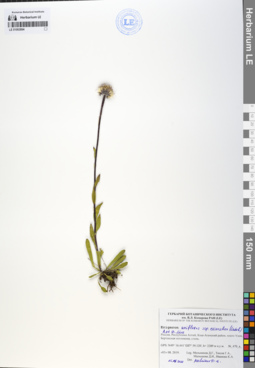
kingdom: Plantae
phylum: Tracheophyta
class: Magnoliopsida
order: Asterales
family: Asteraceae
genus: Erigeron
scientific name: Erigeron eriocalyx
